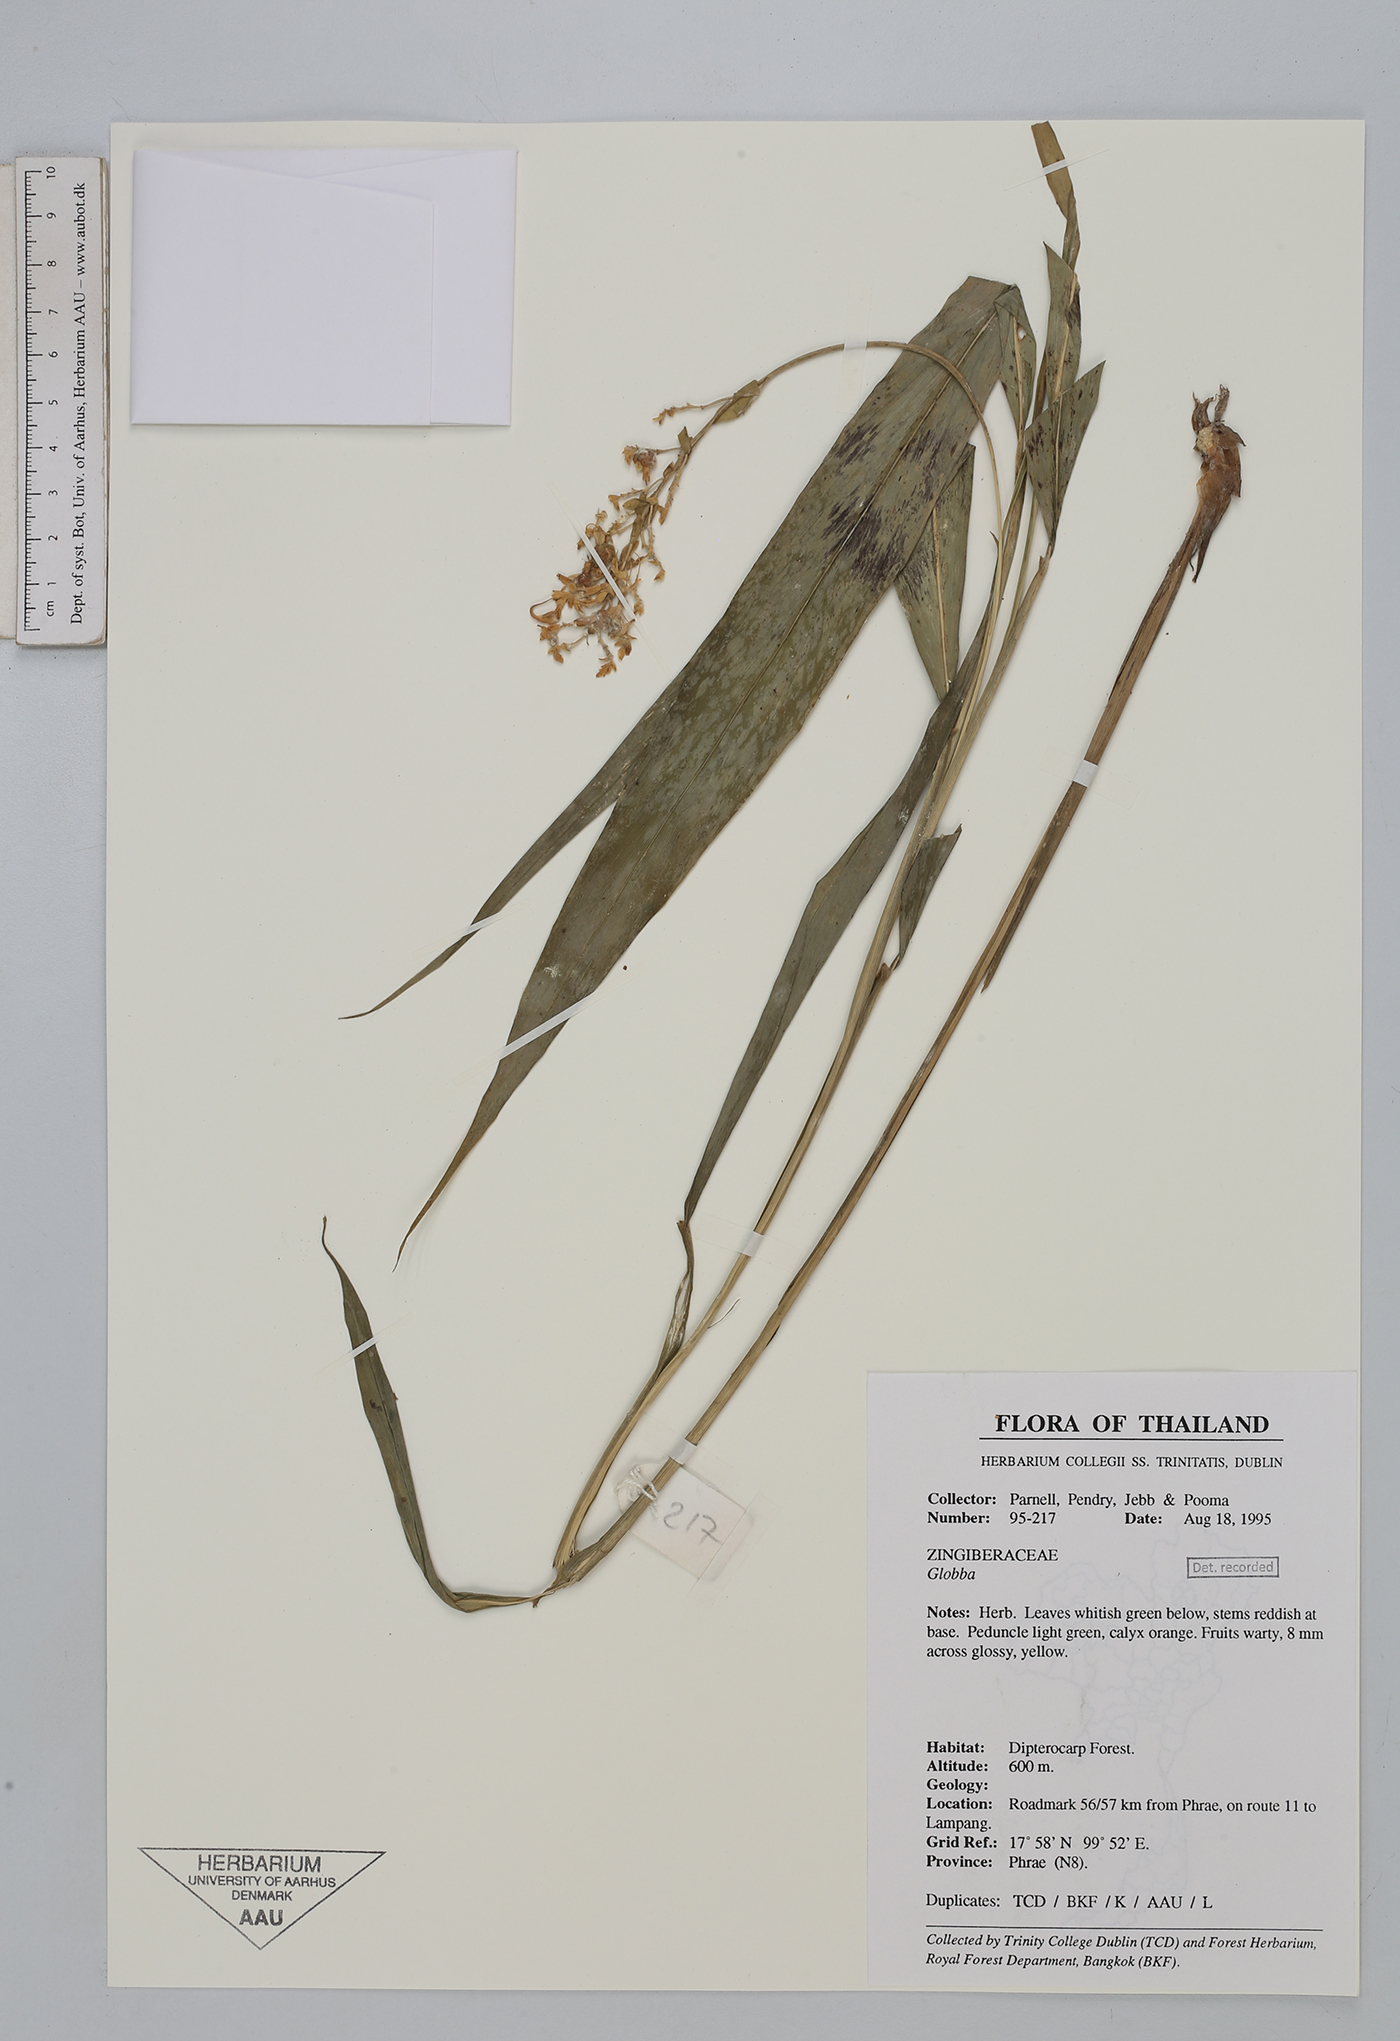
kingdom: Plantae
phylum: Tracheophyta
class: Liliopsida
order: Zingiberales
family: Zingiberaceae
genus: Globba
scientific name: Globba reflexa
